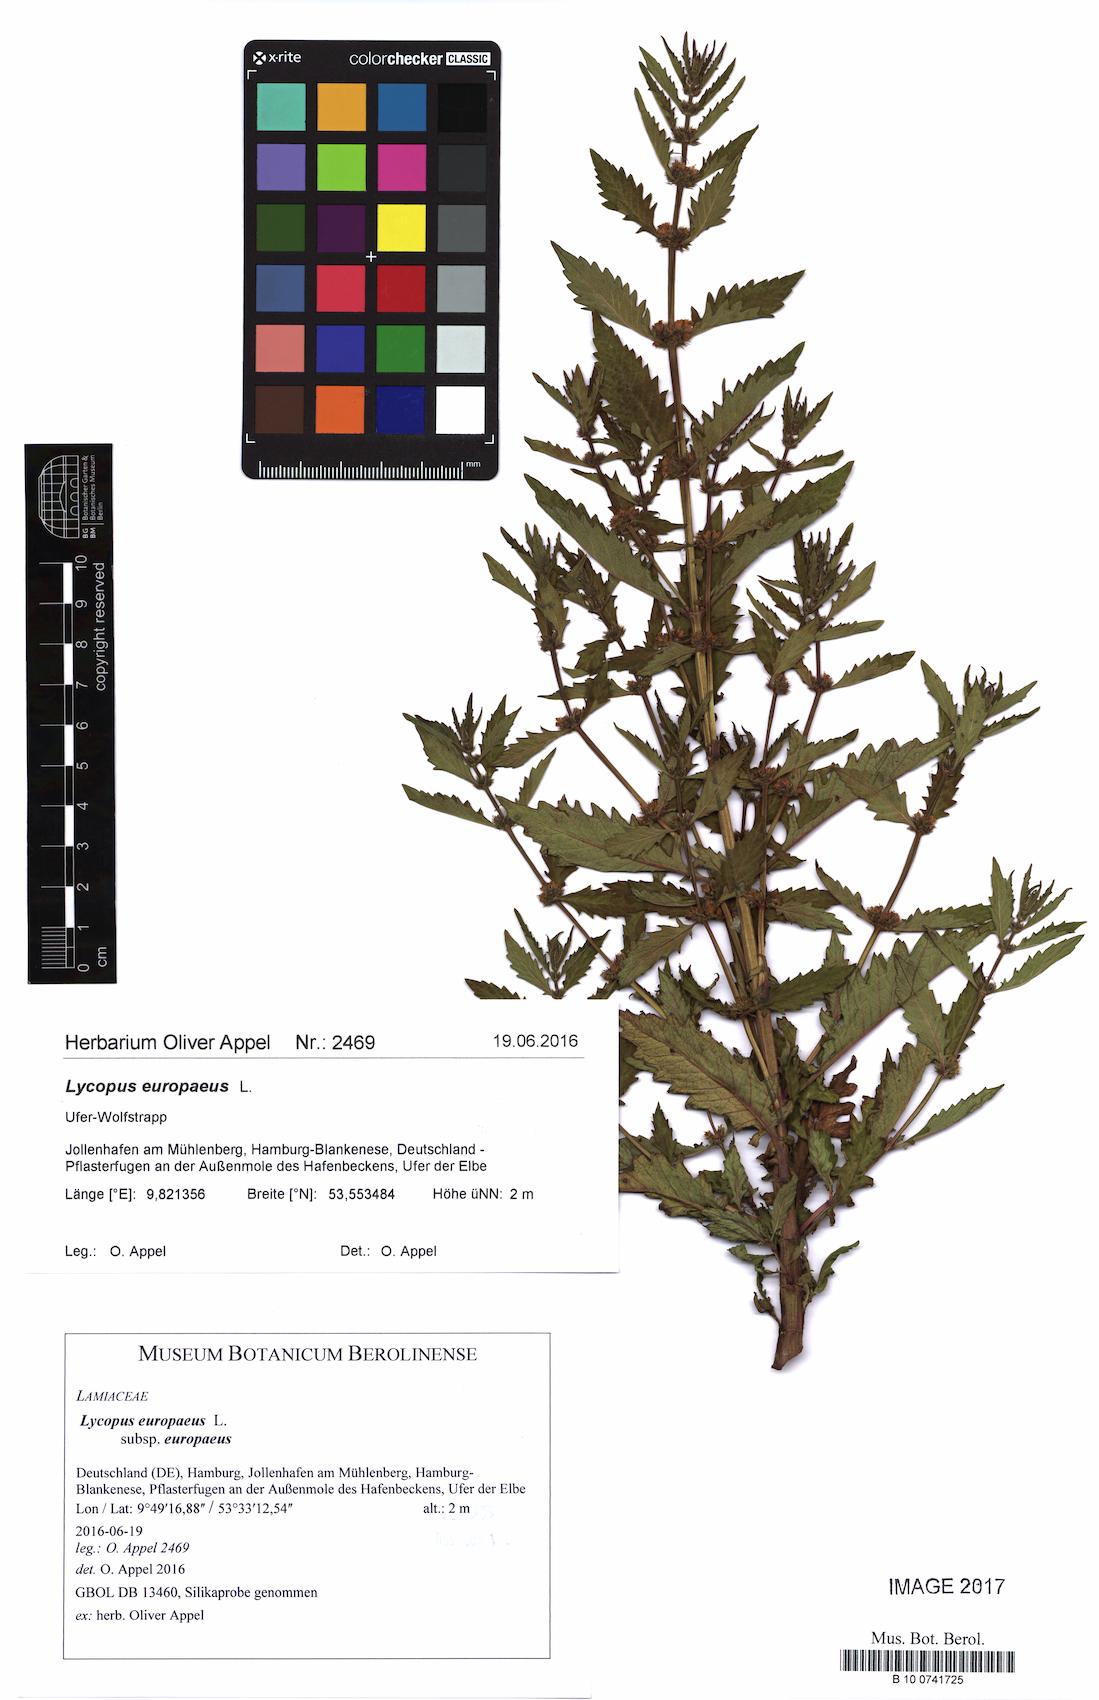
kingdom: Plantae
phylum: Tracheophyta
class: Magnoliopsida
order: Lamiales
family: Lamiaceae
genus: Lycopus
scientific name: Lycopus europaeus
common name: European bugleweed
